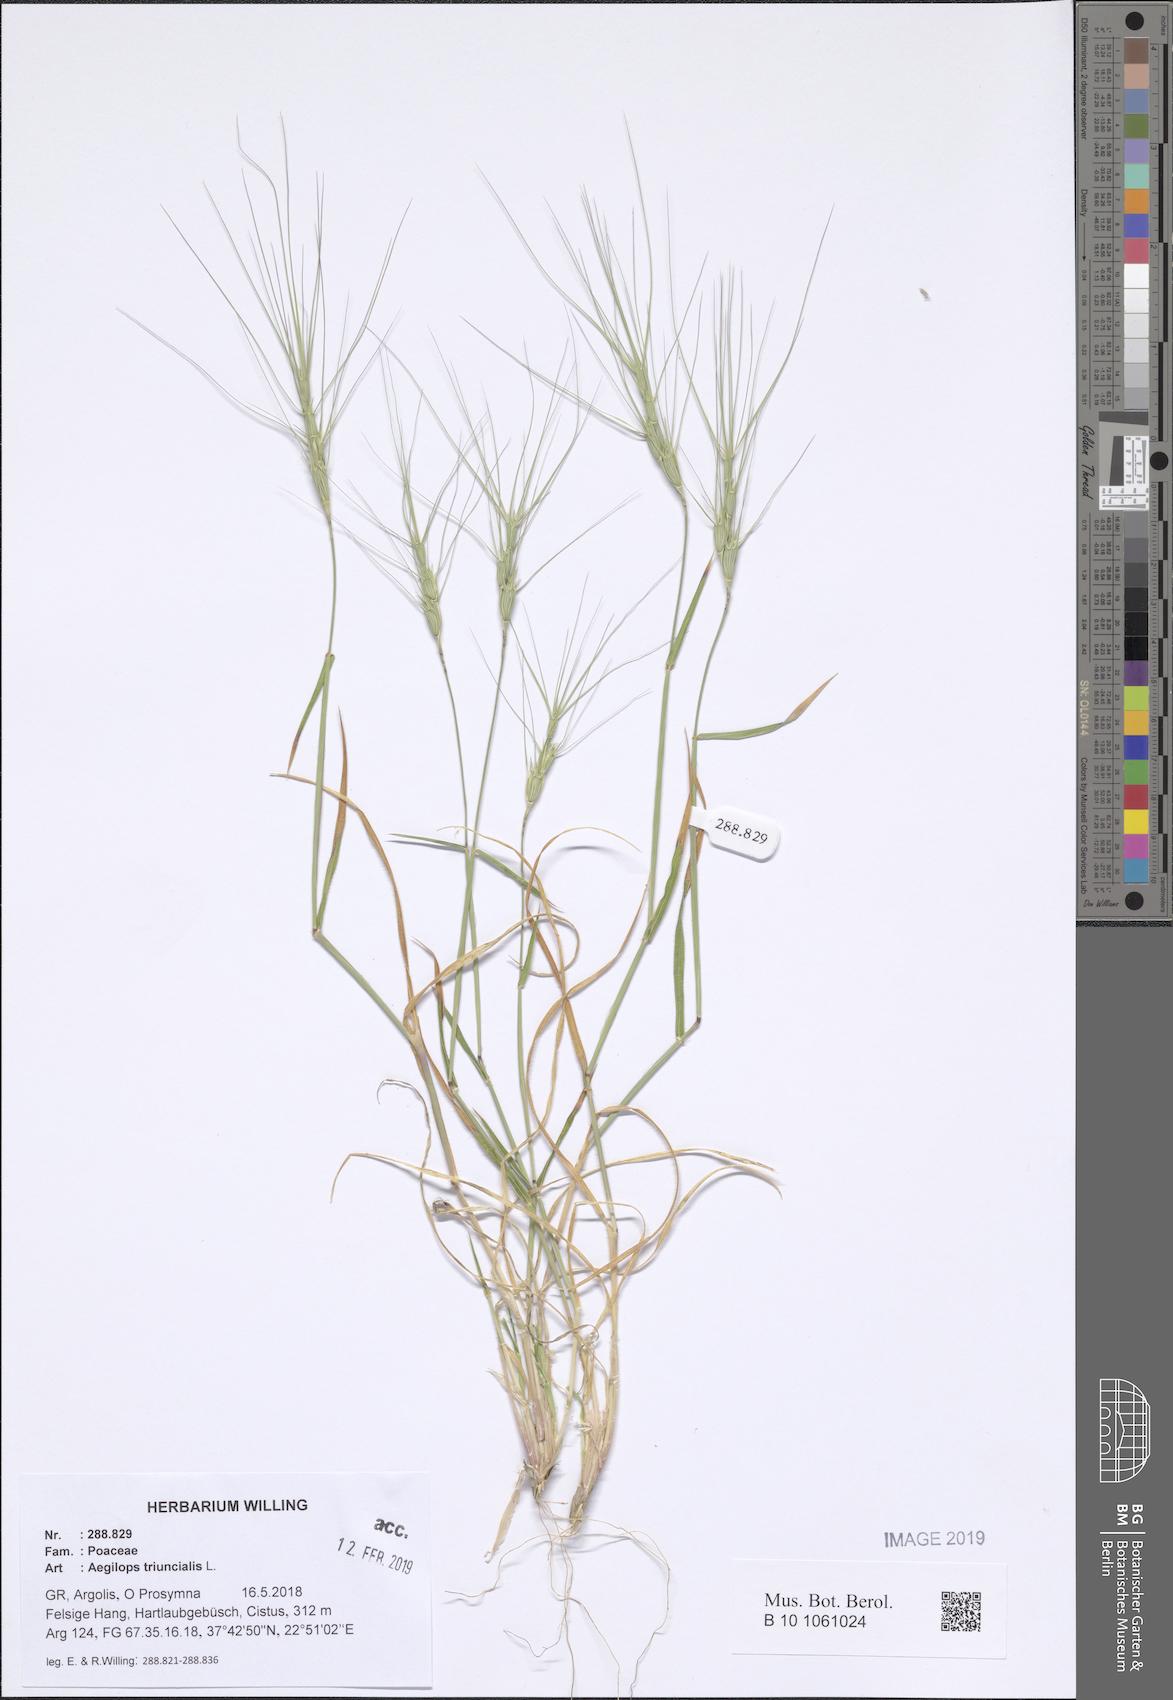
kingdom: Plantae
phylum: Tracheophyta
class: Liliopsida
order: Poales
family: Poaceae
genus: Aegilops
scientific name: Aegilops triuncialis
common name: Barb goat grass
